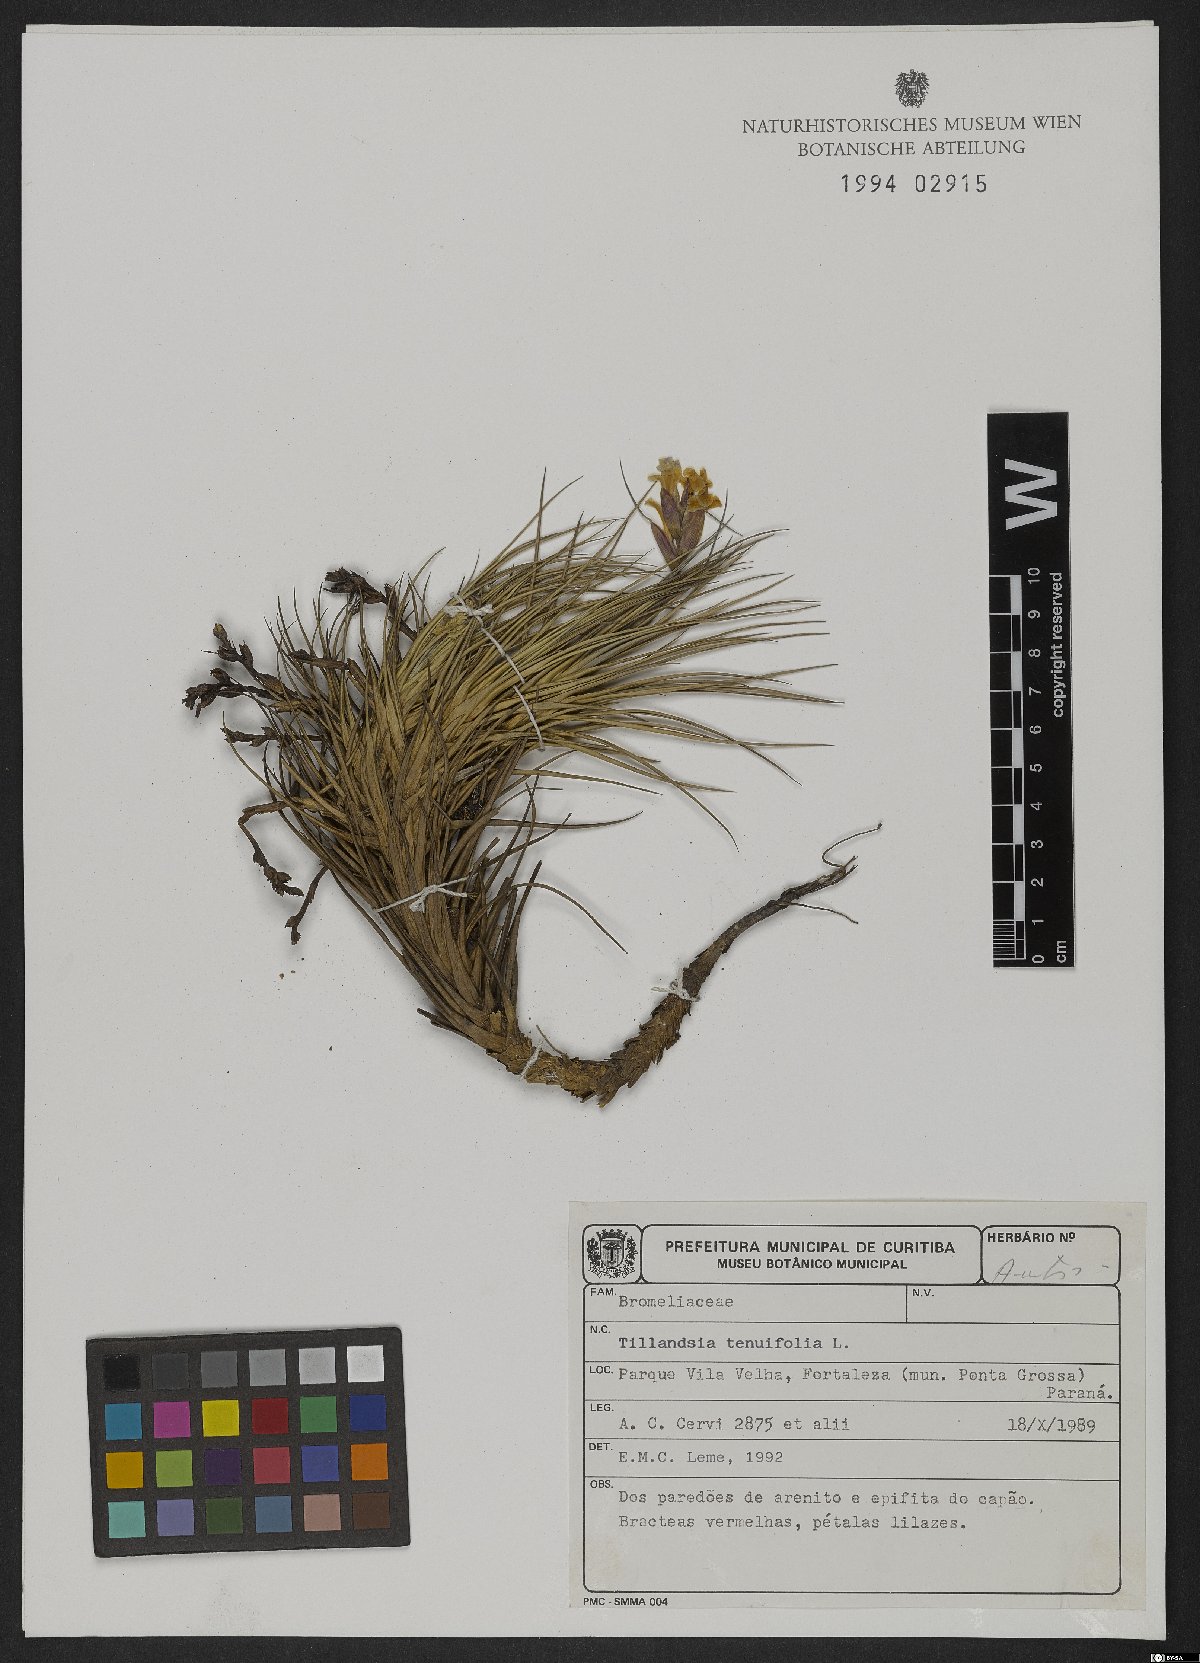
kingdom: Plantae
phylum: Tracheophyta
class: Liliopsida
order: Poales
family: Bromeliaceae
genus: Tillandsia
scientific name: Tillandsia tenuifolia
